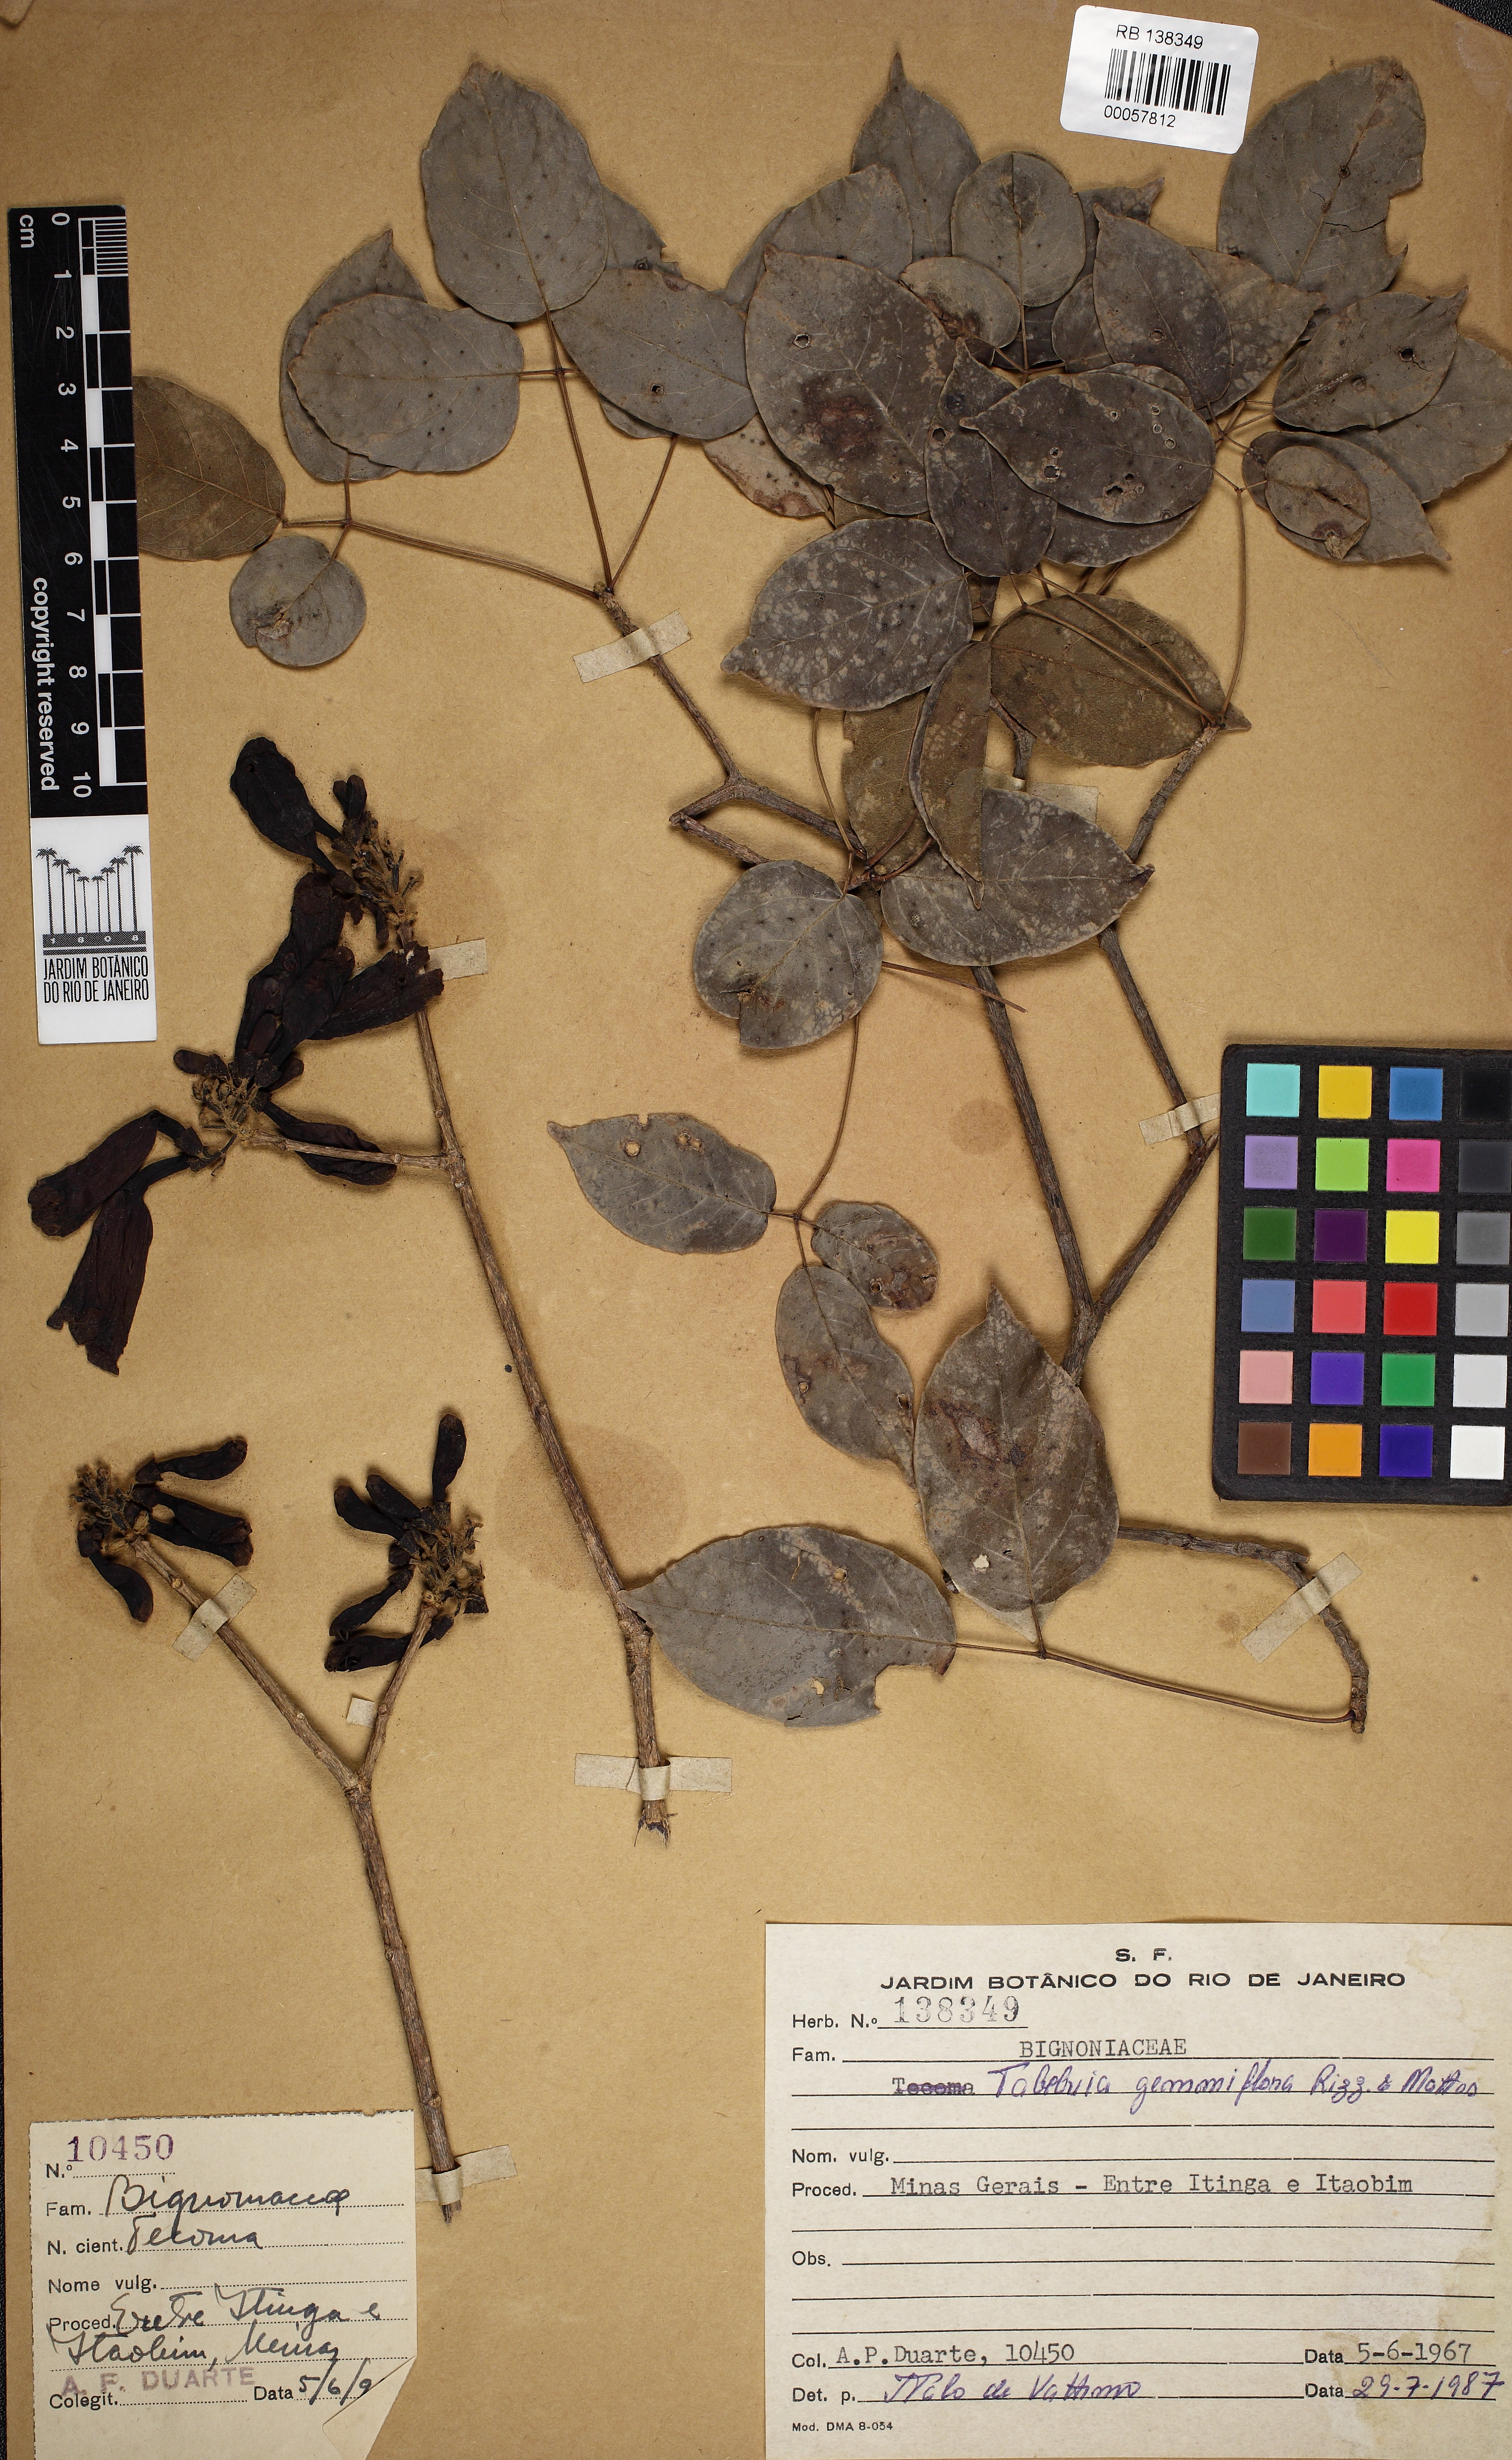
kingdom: Plantae
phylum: Tracheophyta
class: Magnoliopsida
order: Lamiales
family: Bignoniaceae
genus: Tabebuia
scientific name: Tabebuia gemmiflora
